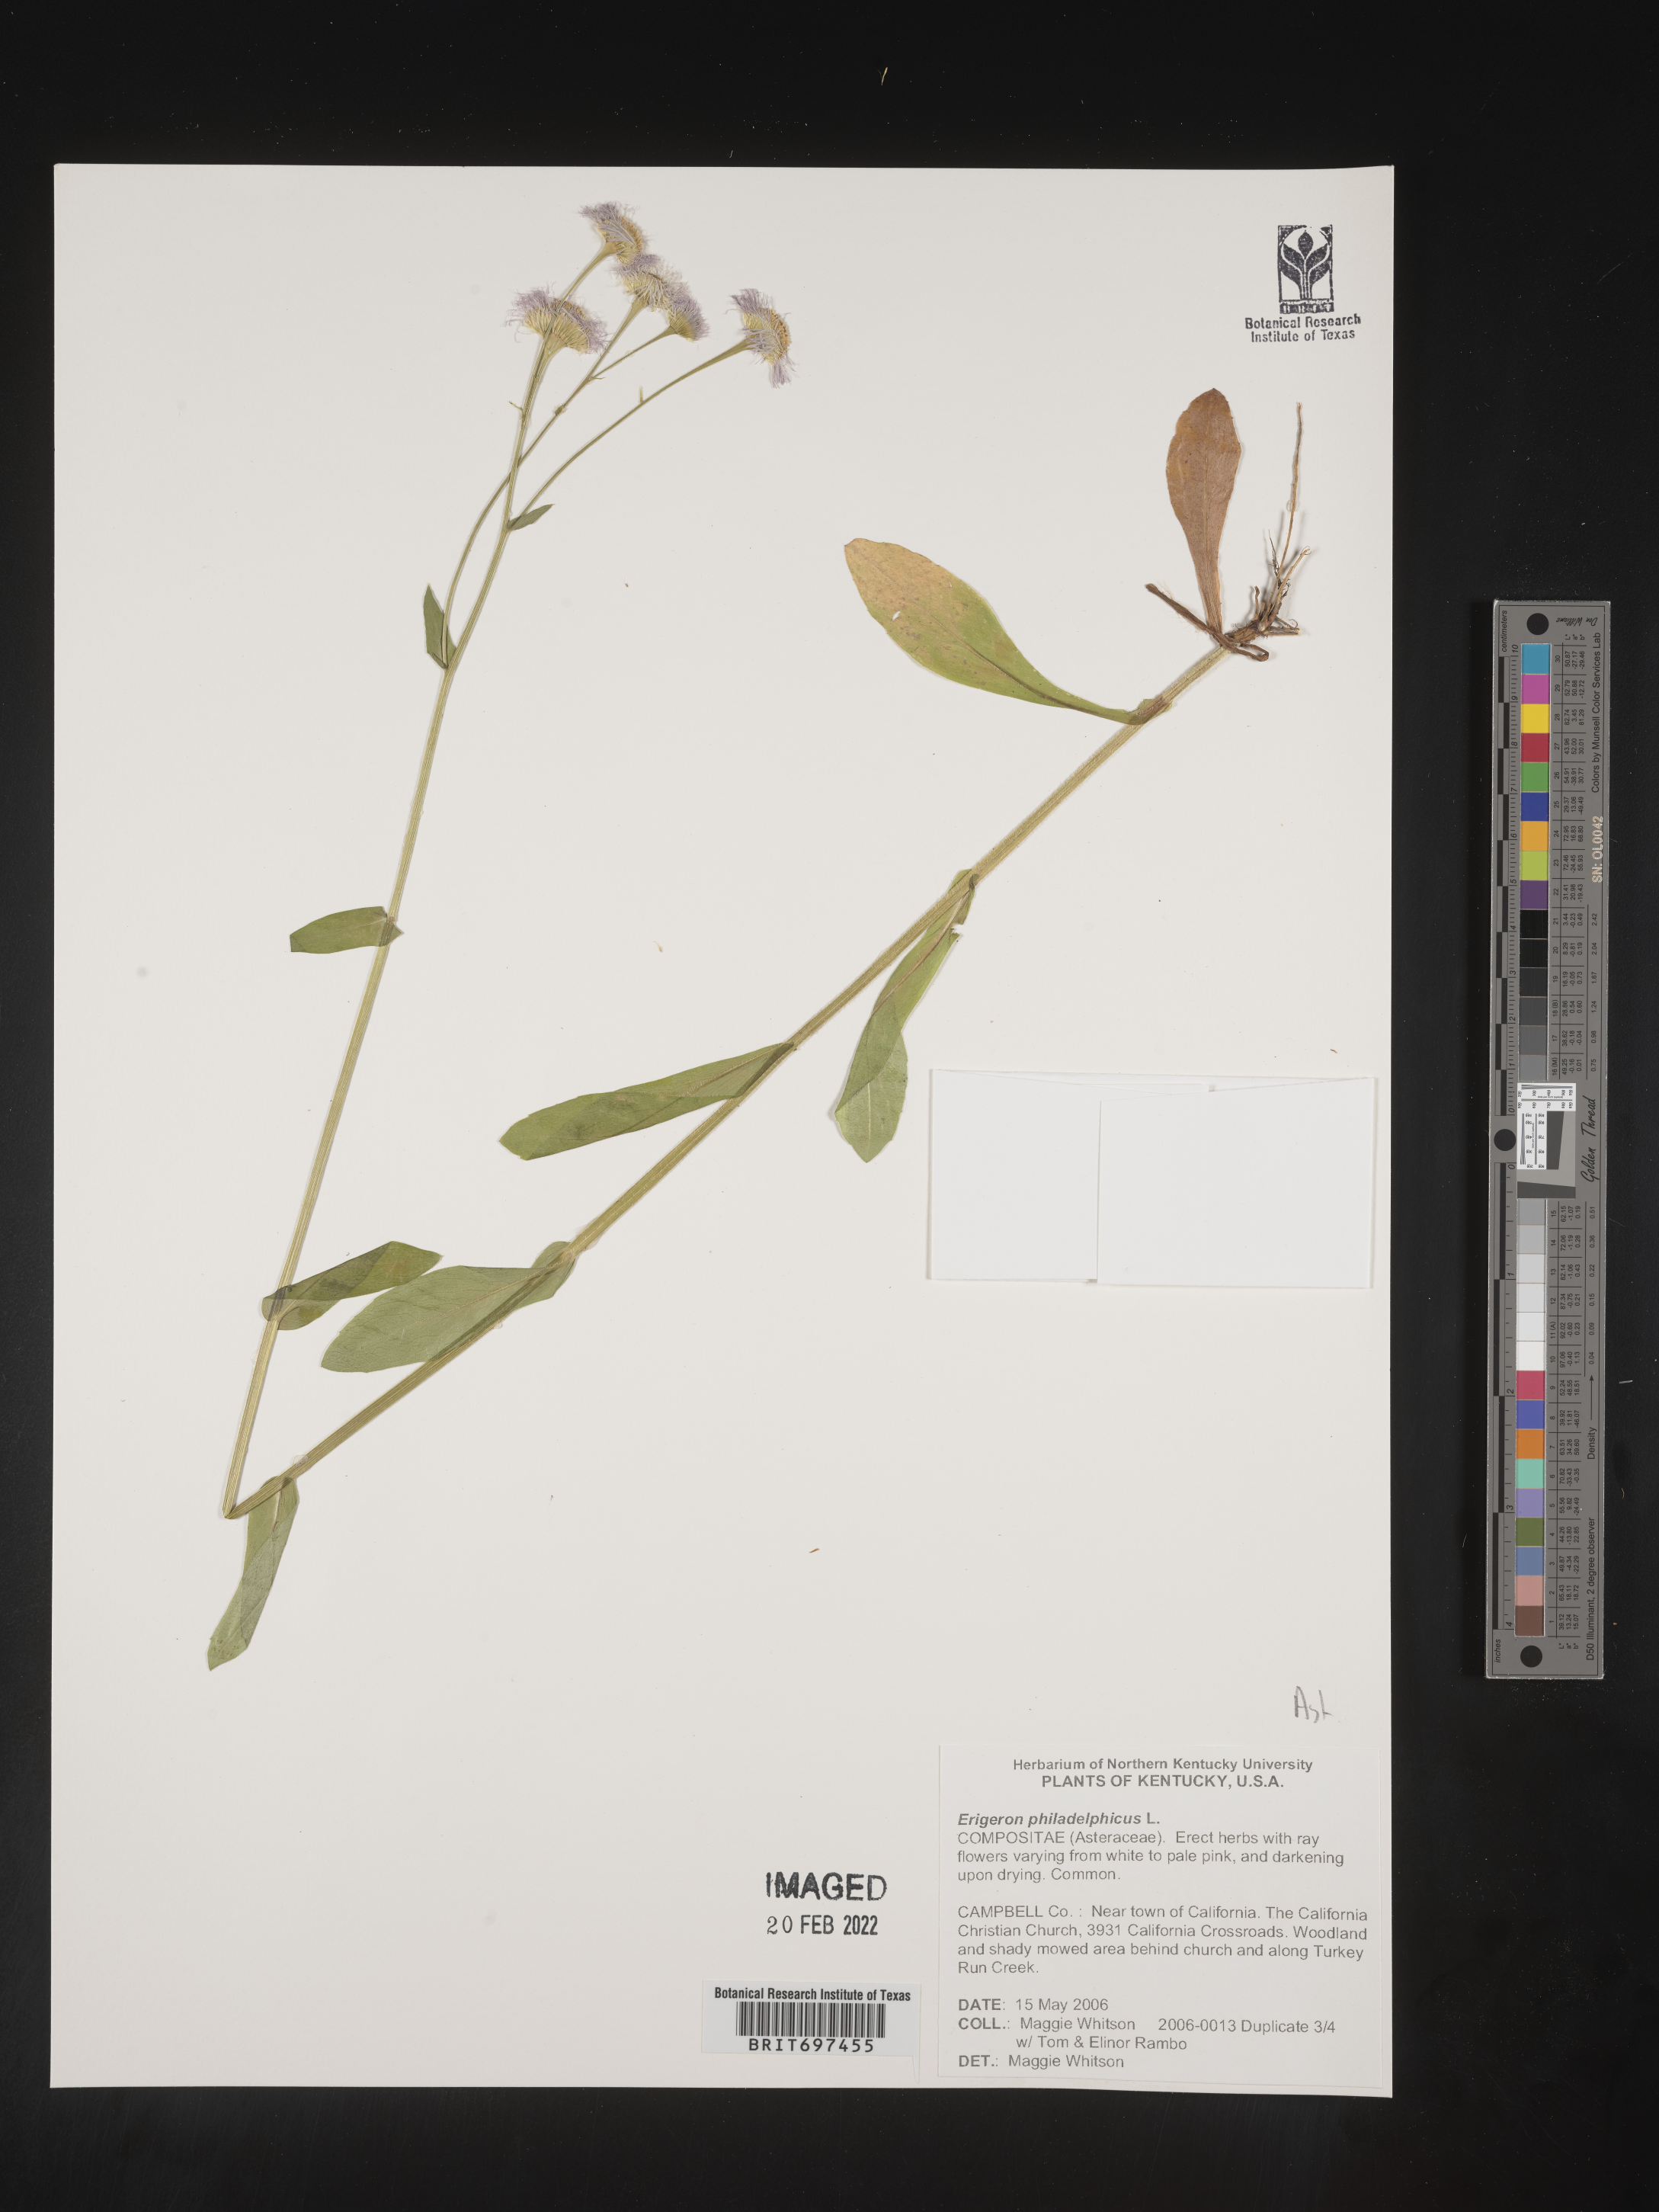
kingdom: Plantae
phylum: Tracheophyta
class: Magnoliopsida
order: Asterales
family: Asteraceae
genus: Erigeron
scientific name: Erigeron philadelphicus
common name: Robin's-plantain
